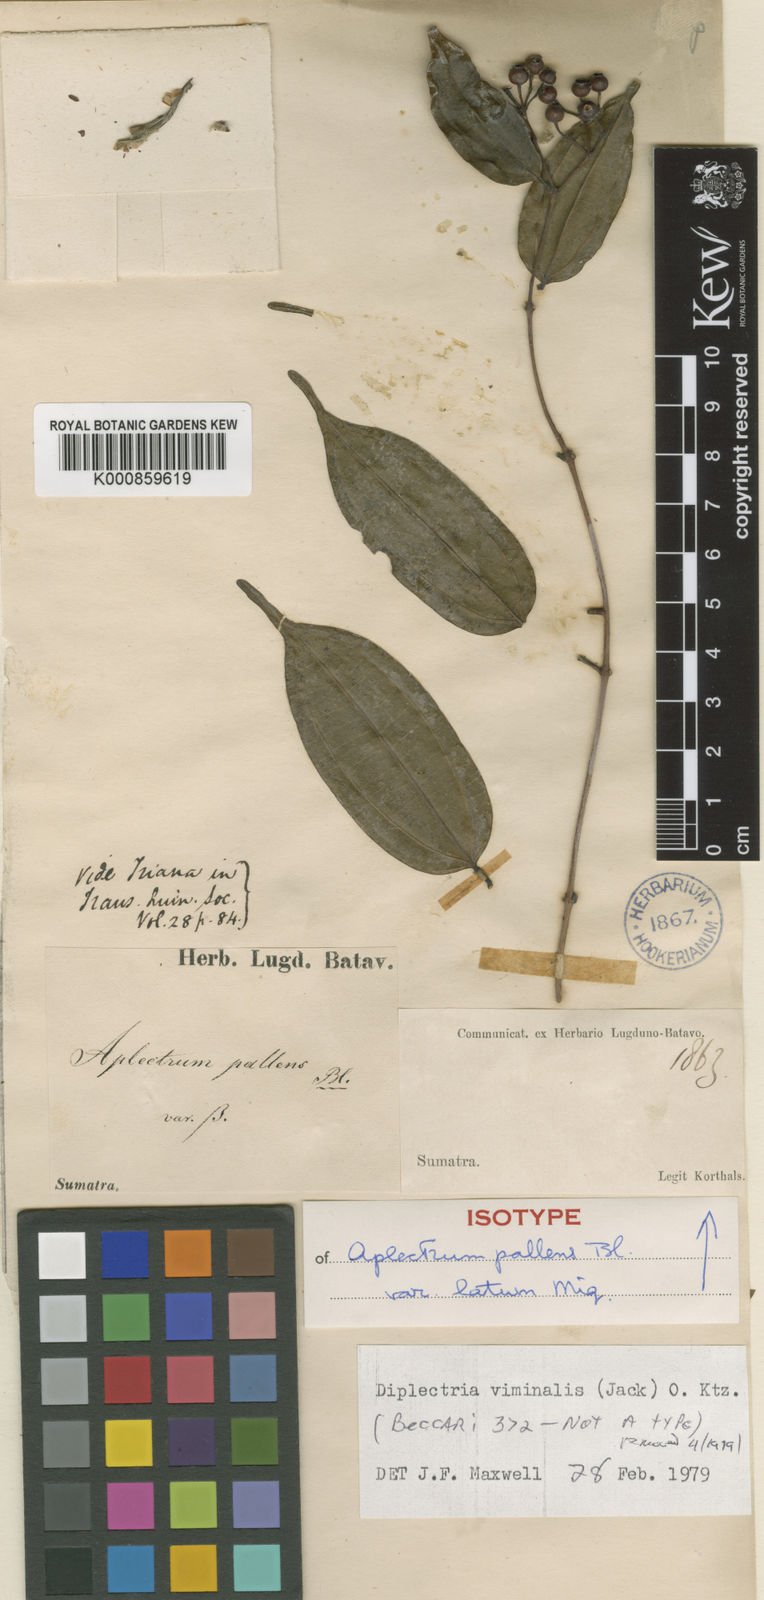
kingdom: Plantae
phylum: Tracheophyta
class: Magnoliopsida
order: Myrtales
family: Melastomataceae
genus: Diplectria
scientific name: Diplectria viminalis
